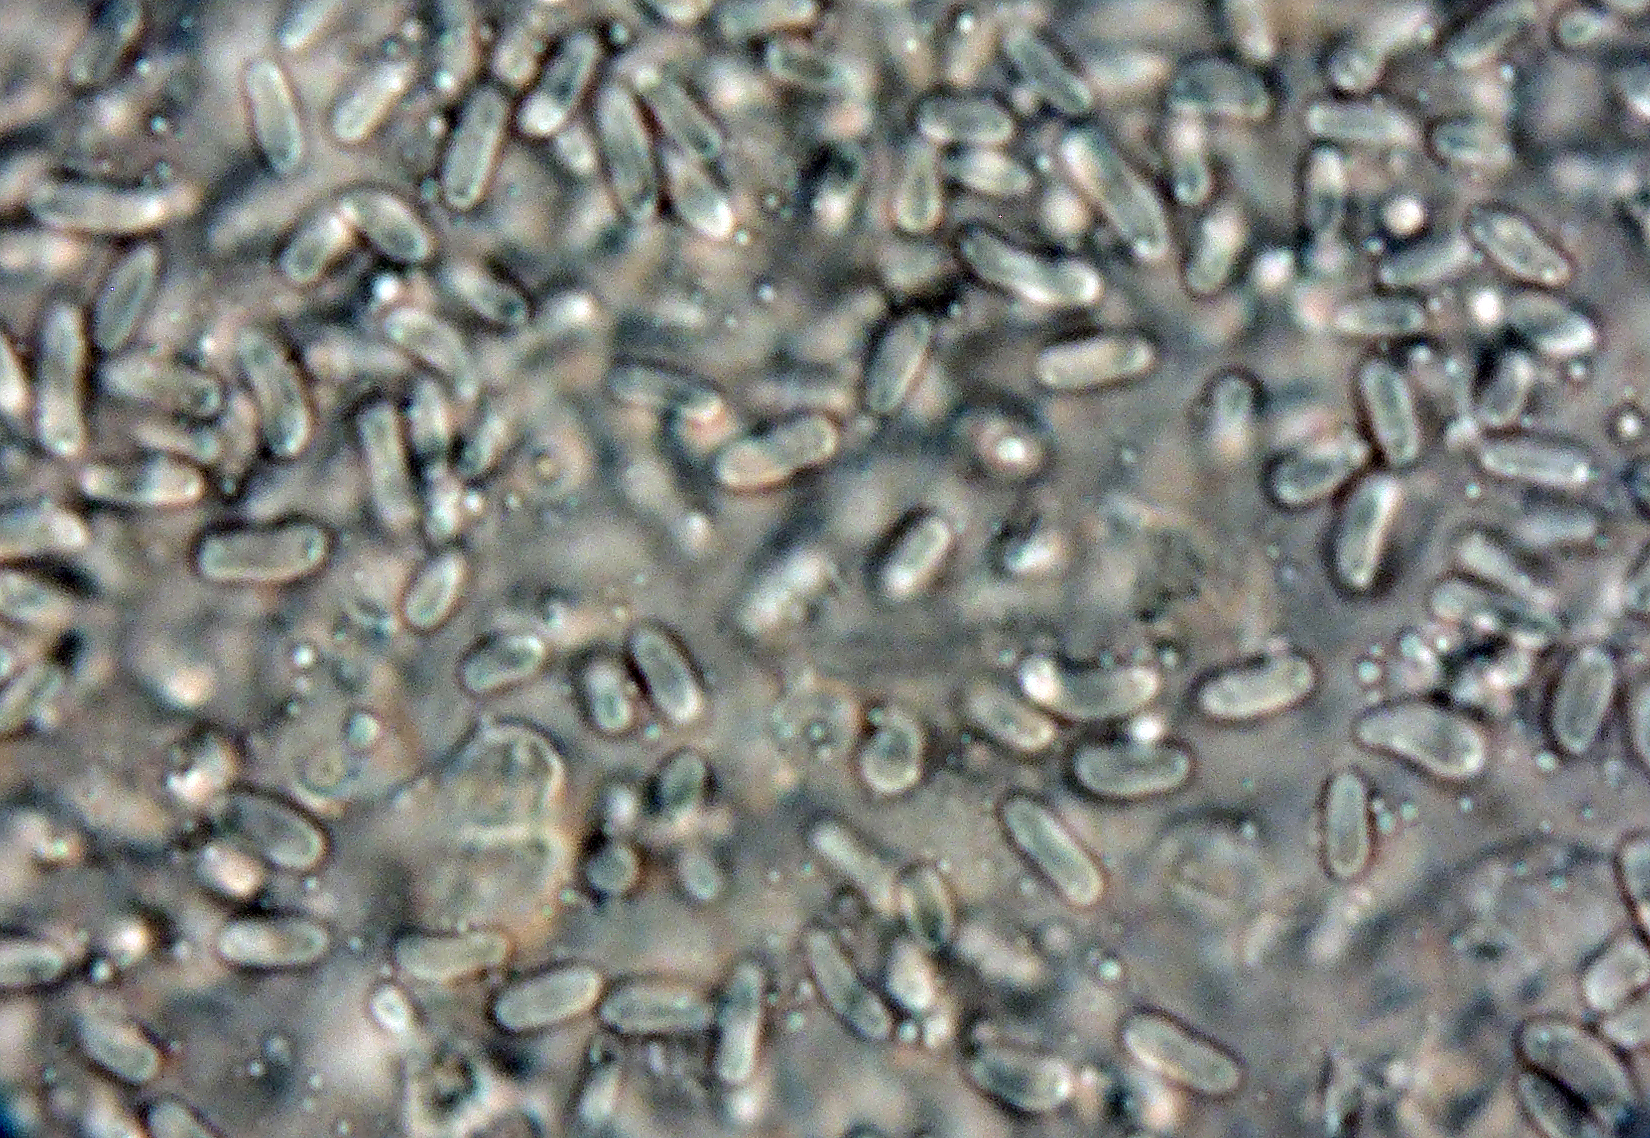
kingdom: Fungi
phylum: Ascomycota
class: Dothideomycetes
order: Pleosporales
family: Leptosphaeriaceae
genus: Heterosporicola
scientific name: Heterosporicola chenopodii
